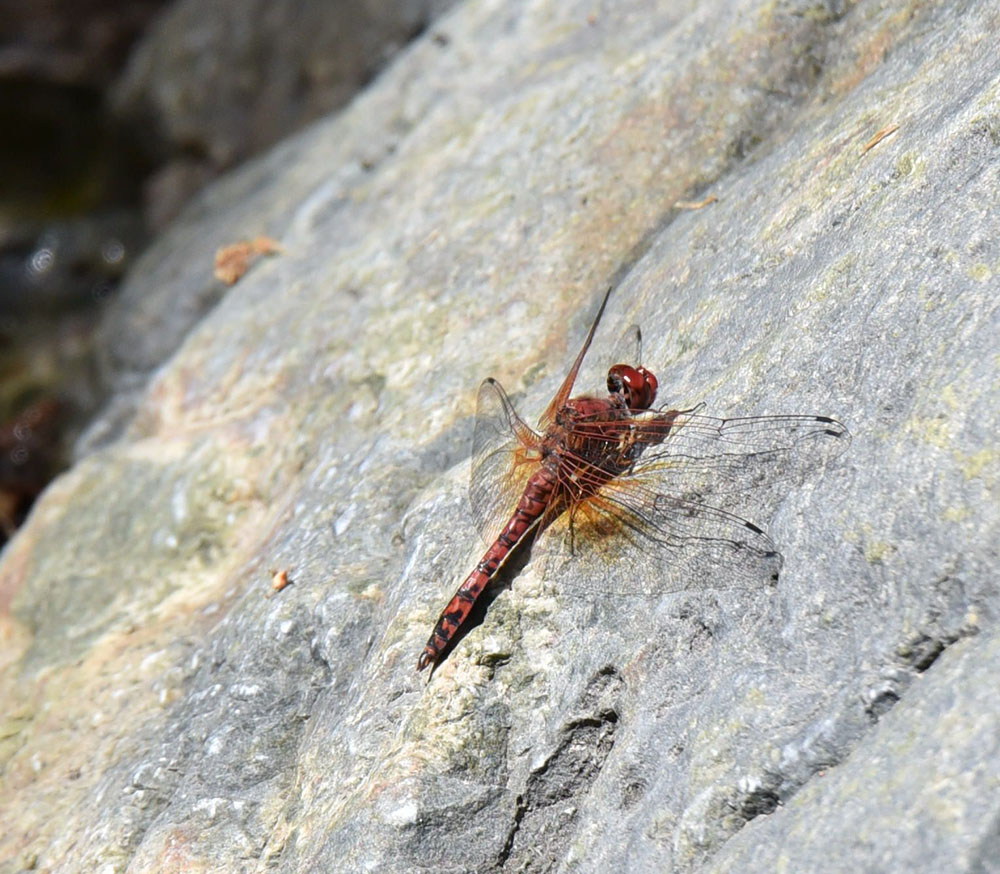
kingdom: Animalia
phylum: Arthropoda
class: Insecta
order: Odonata
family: Libellulidae
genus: Paltothemis
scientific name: Paltothemis lineatipes
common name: Red rock skimmer
